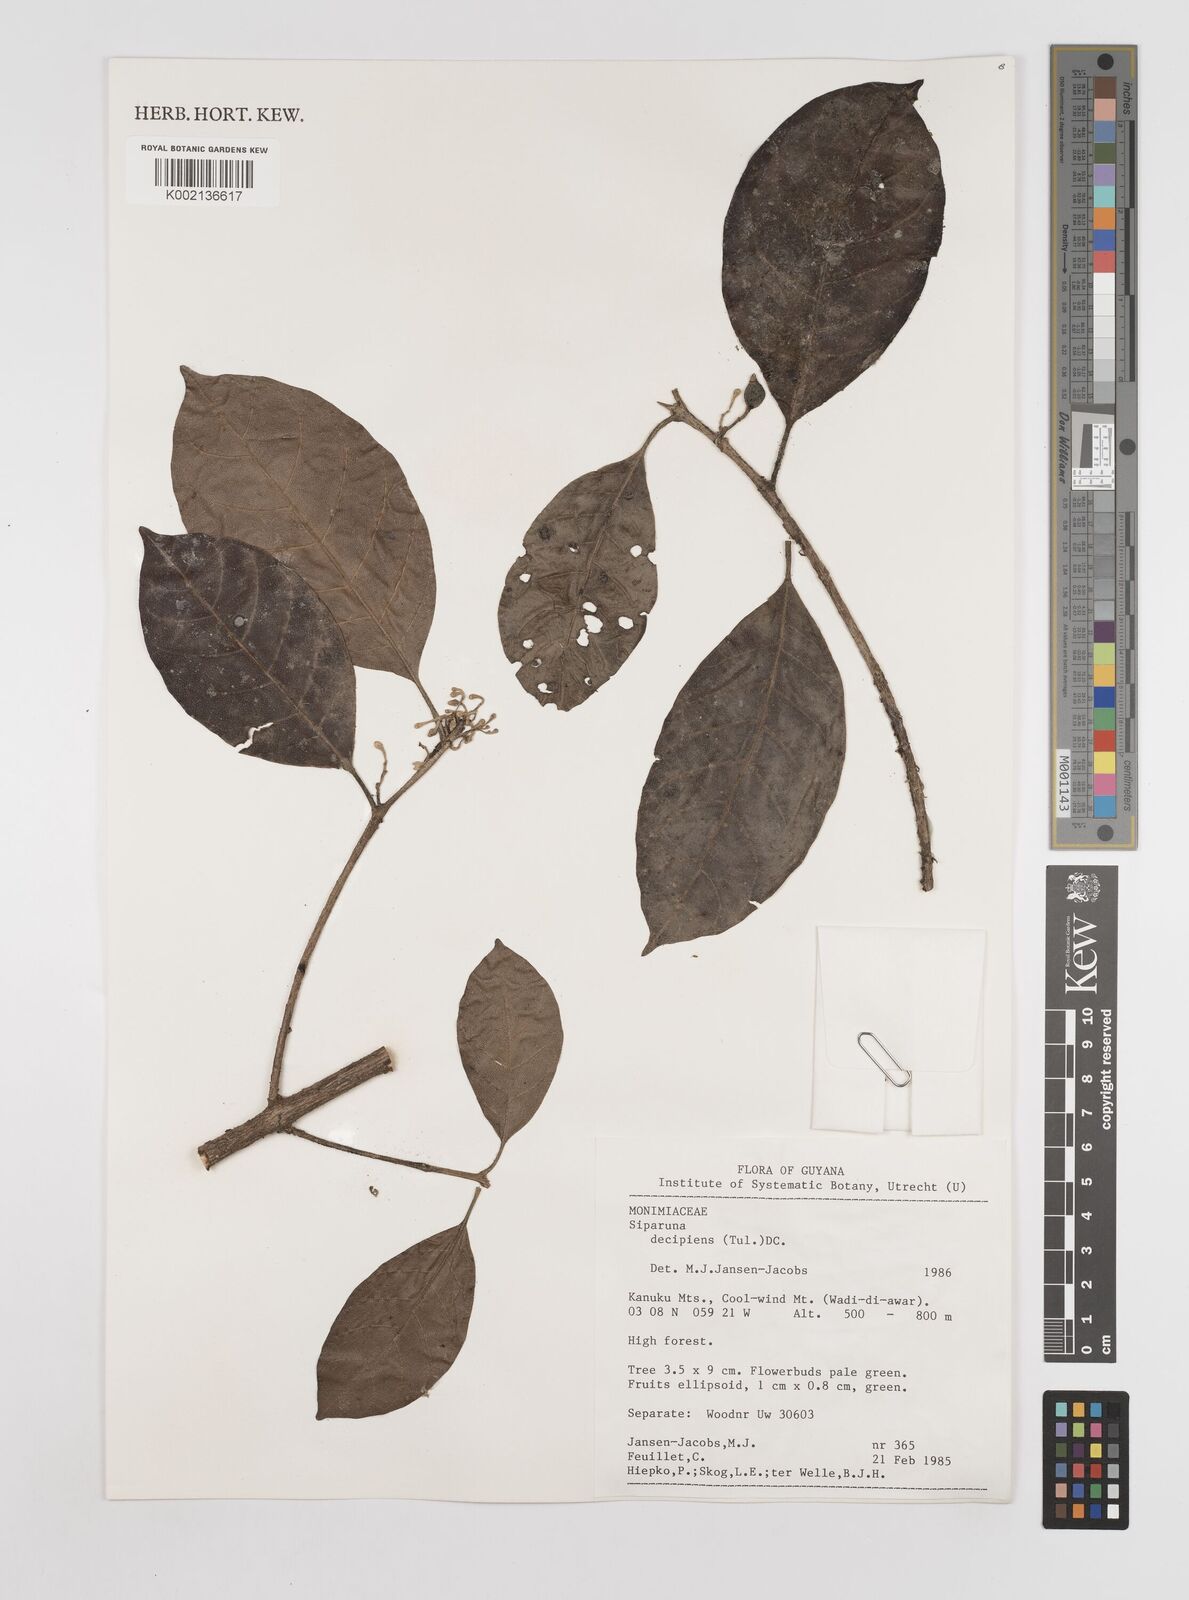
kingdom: Plantae
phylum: Tracheophyta
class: Magnoliopsida
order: Laurales
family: Siparunaceae
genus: Siparuna
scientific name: Siparuna decipiens
